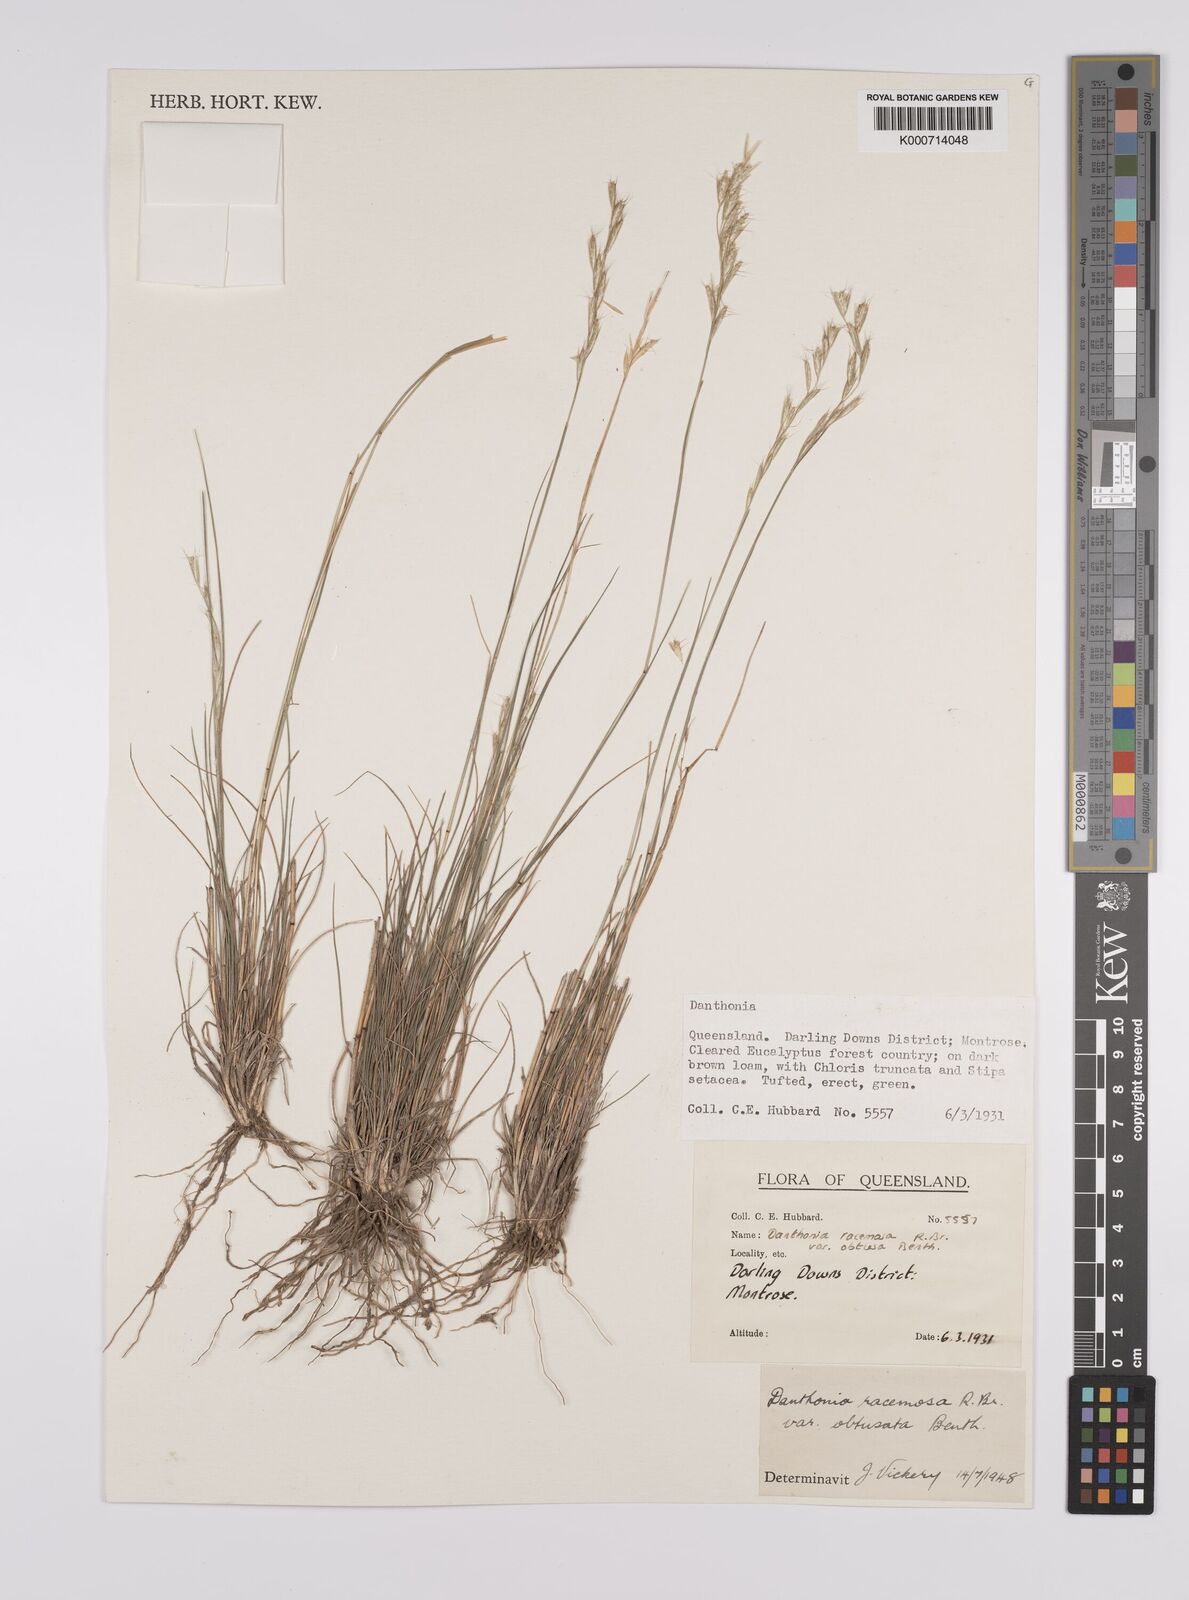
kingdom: Plantae
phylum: Tracheophyta
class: Liliopsida
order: Poales
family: Poaceae
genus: Rytidosperma
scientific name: Rytidosperma racemosum
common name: Wallaby-grass
